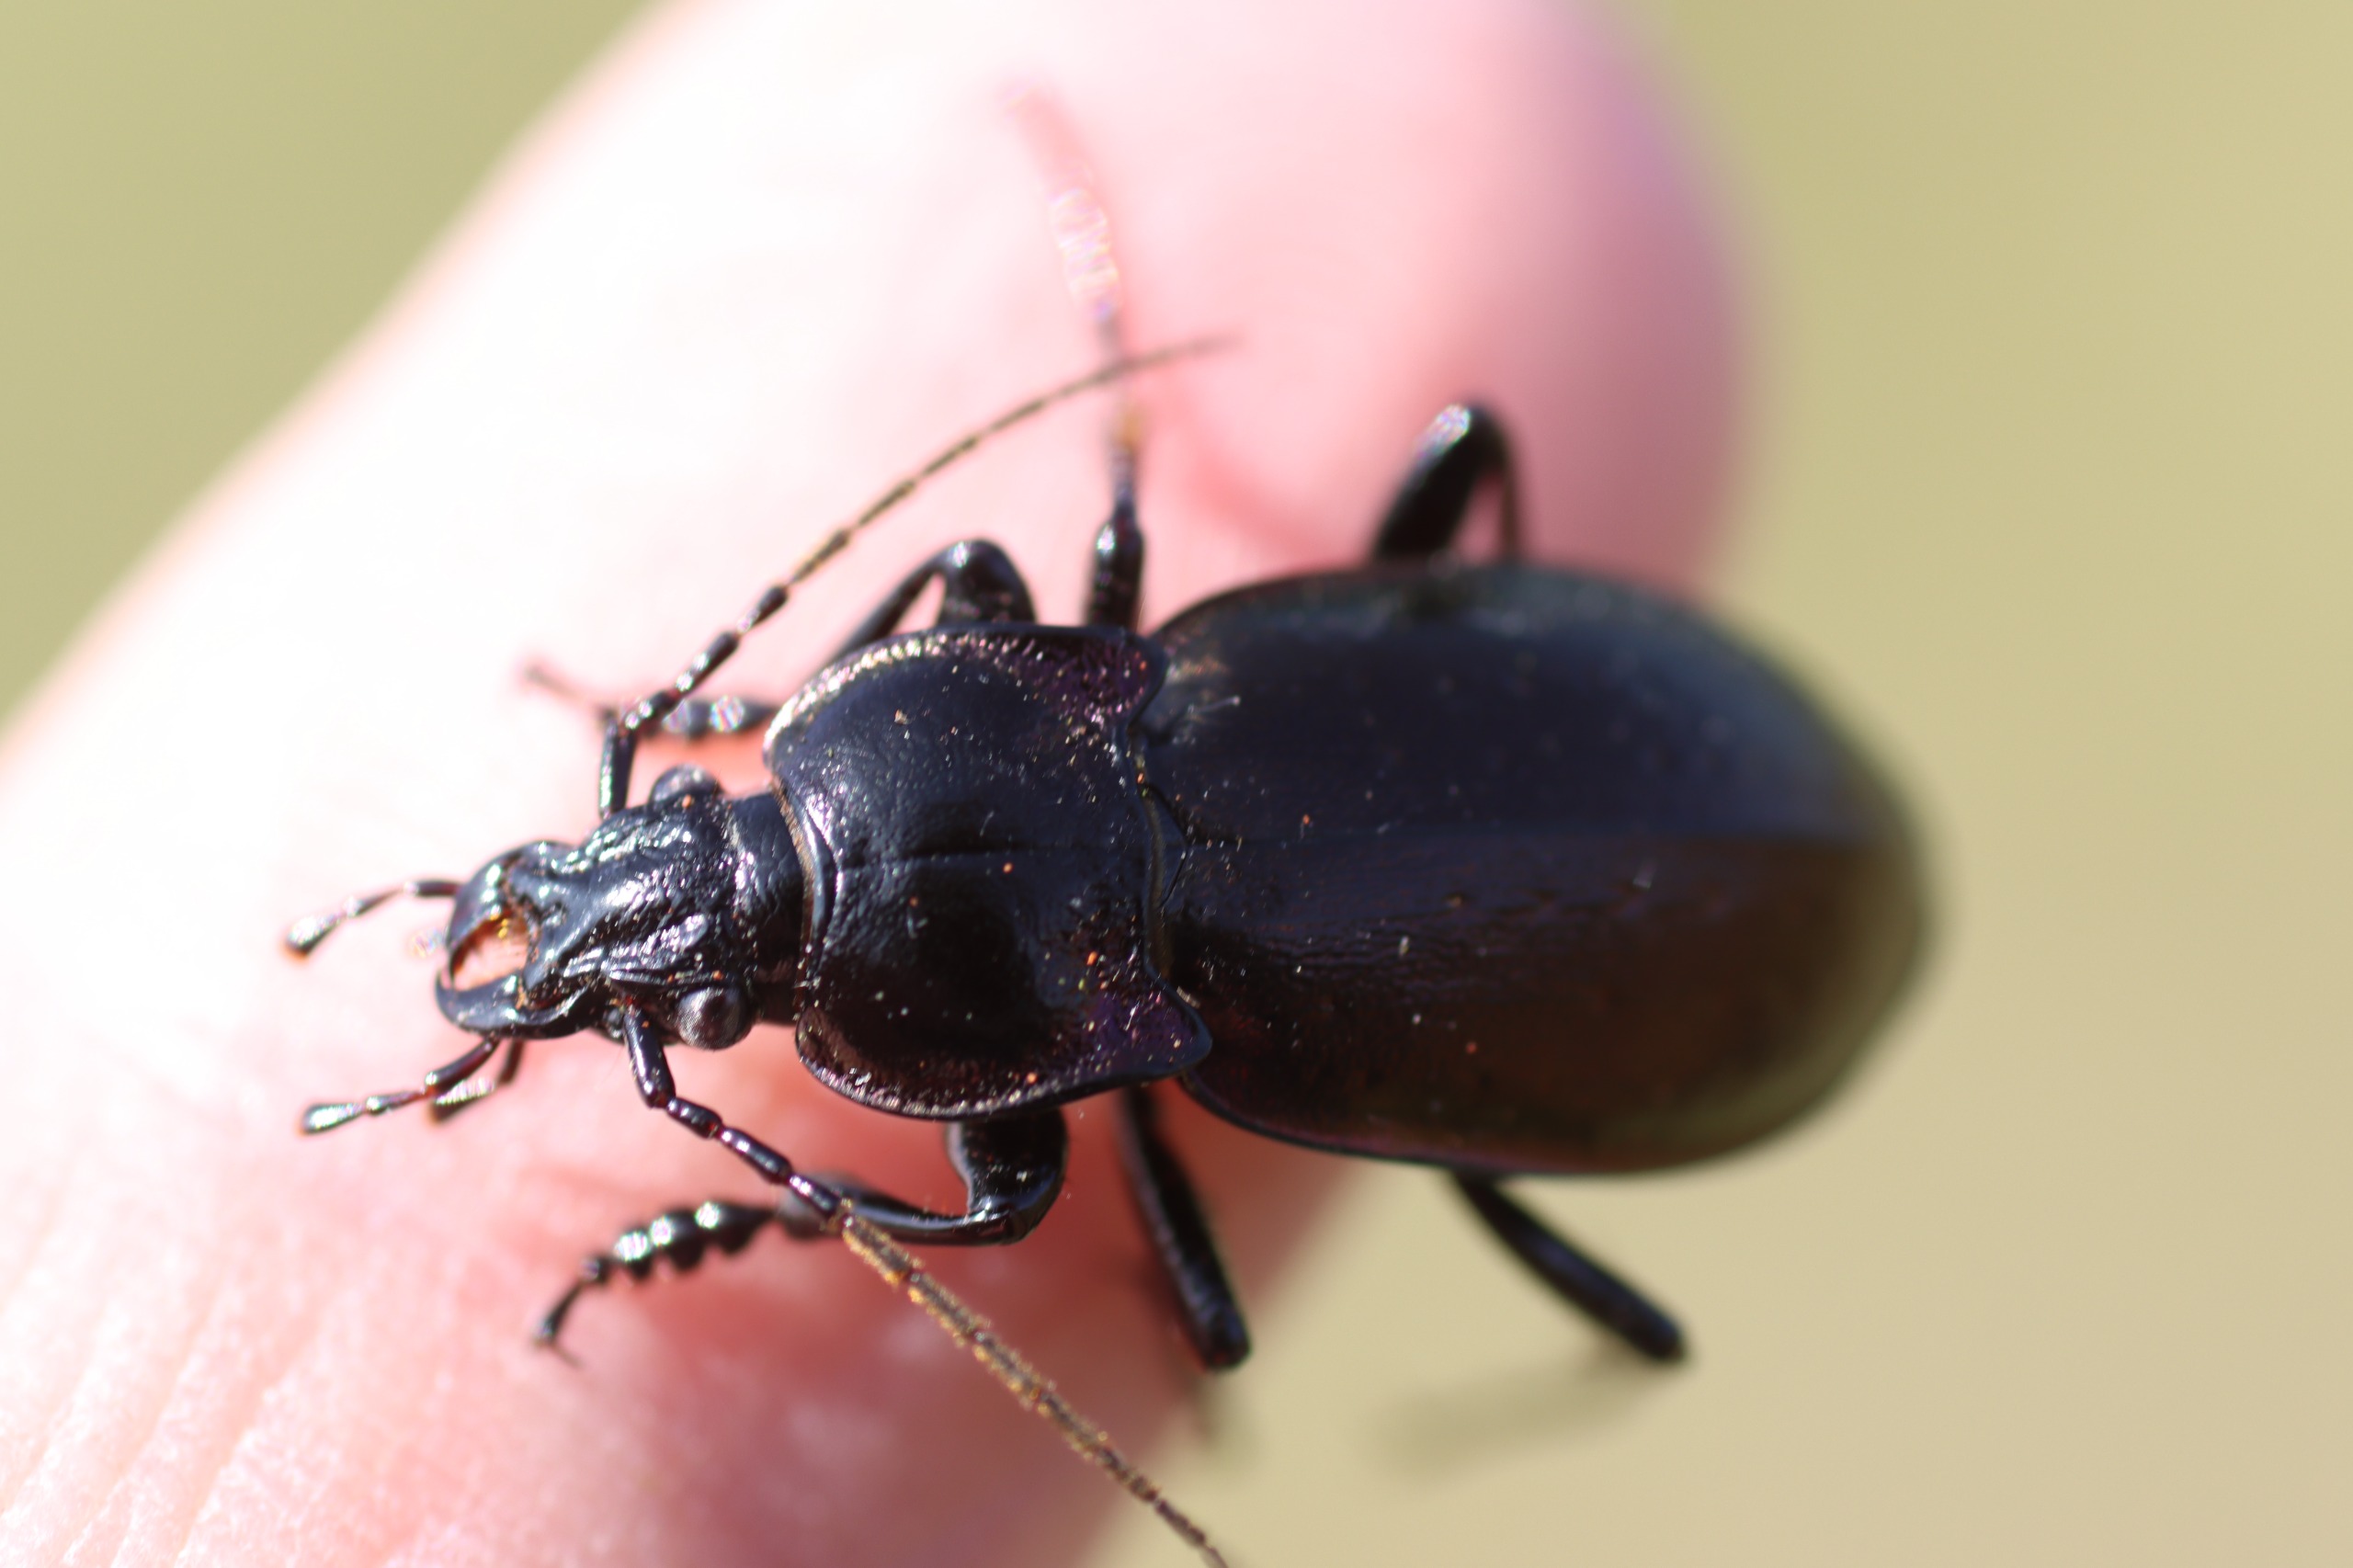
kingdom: Animalia
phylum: Arthropoda
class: Insecta
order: Coleoptera
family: Carabidae
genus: Carabus
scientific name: Carabus nemoralis
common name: Kratløber
